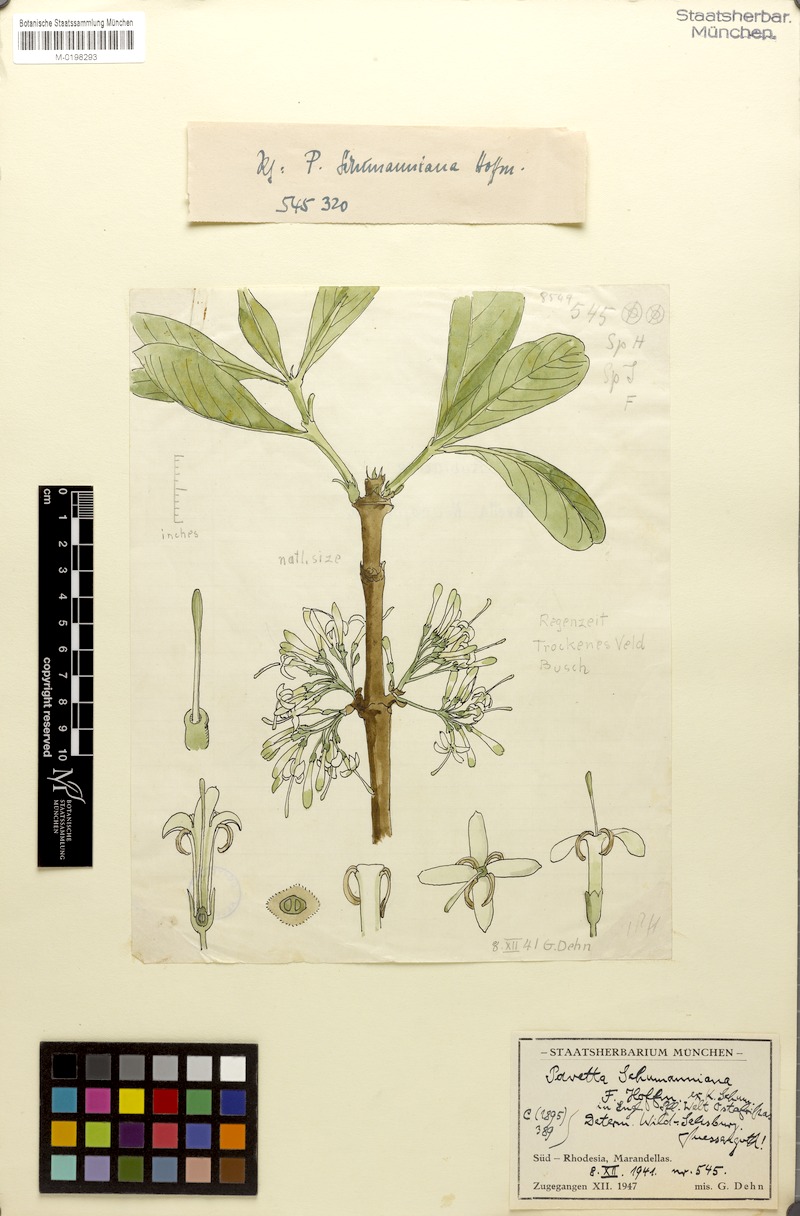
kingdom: Plantae
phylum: Tracheophyta
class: Magnoliopsida
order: Gentianales
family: Rubiaceae
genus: Pavetta
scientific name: Pavetta schumanniana
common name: Poisonous bride's-bush
